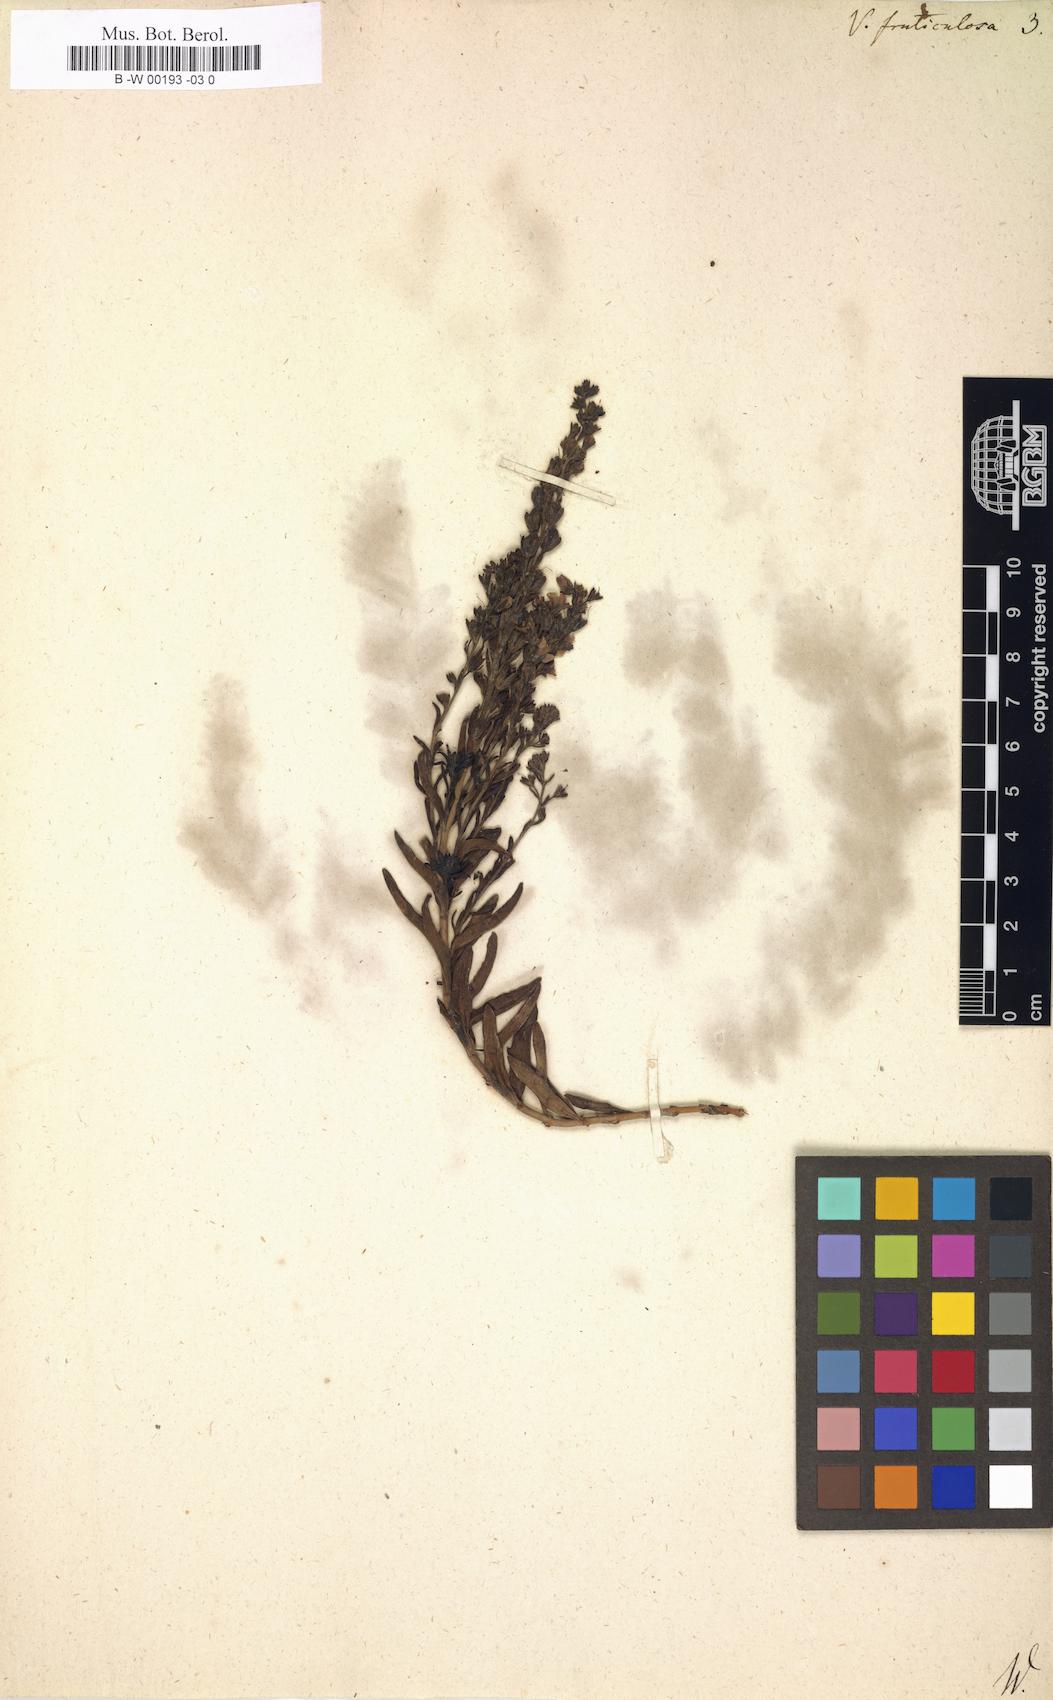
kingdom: Plantae
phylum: Tracheophyta
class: Magnoliopsida
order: Lamiales
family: Plantaginaceae
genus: Veronica
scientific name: Veronica fruticulosa
